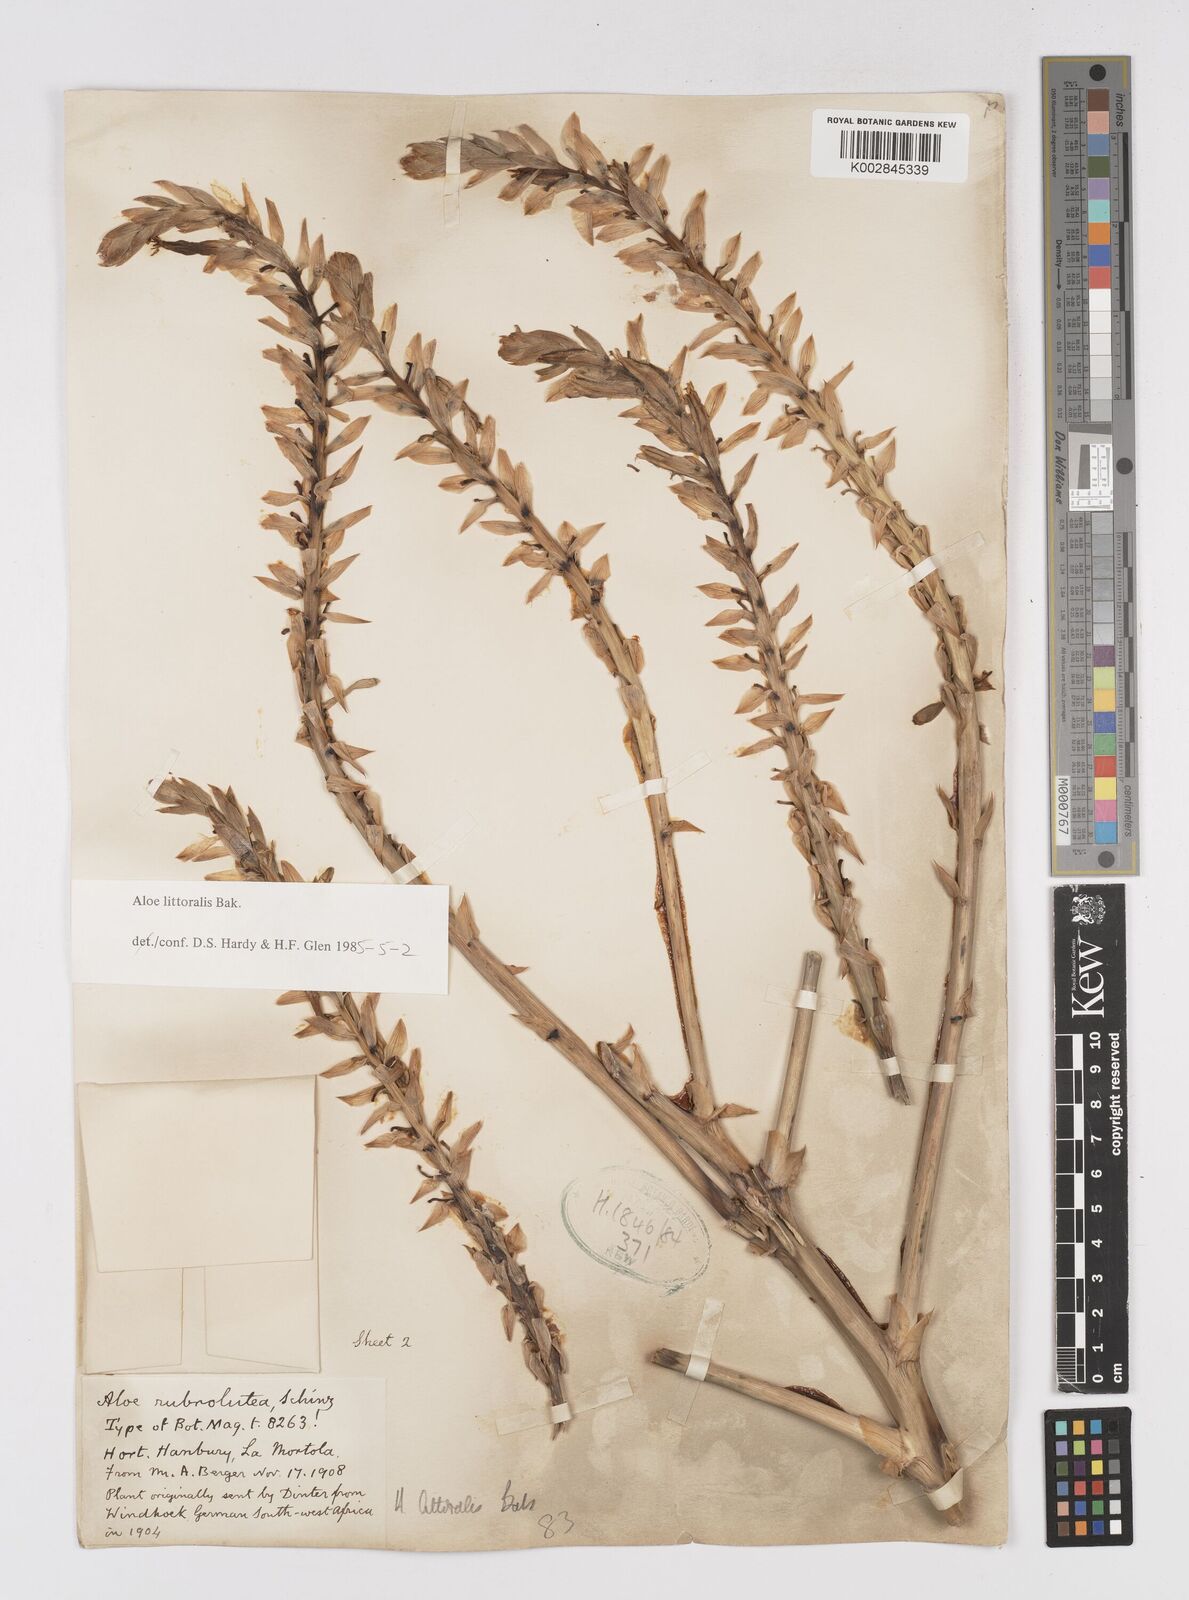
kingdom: Plantae
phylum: Tracheophyta
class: Liliopsida
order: Asparagales
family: Asphodelaceae
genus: Aloe
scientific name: Aloe littoralis
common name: Luanda tree aloe
